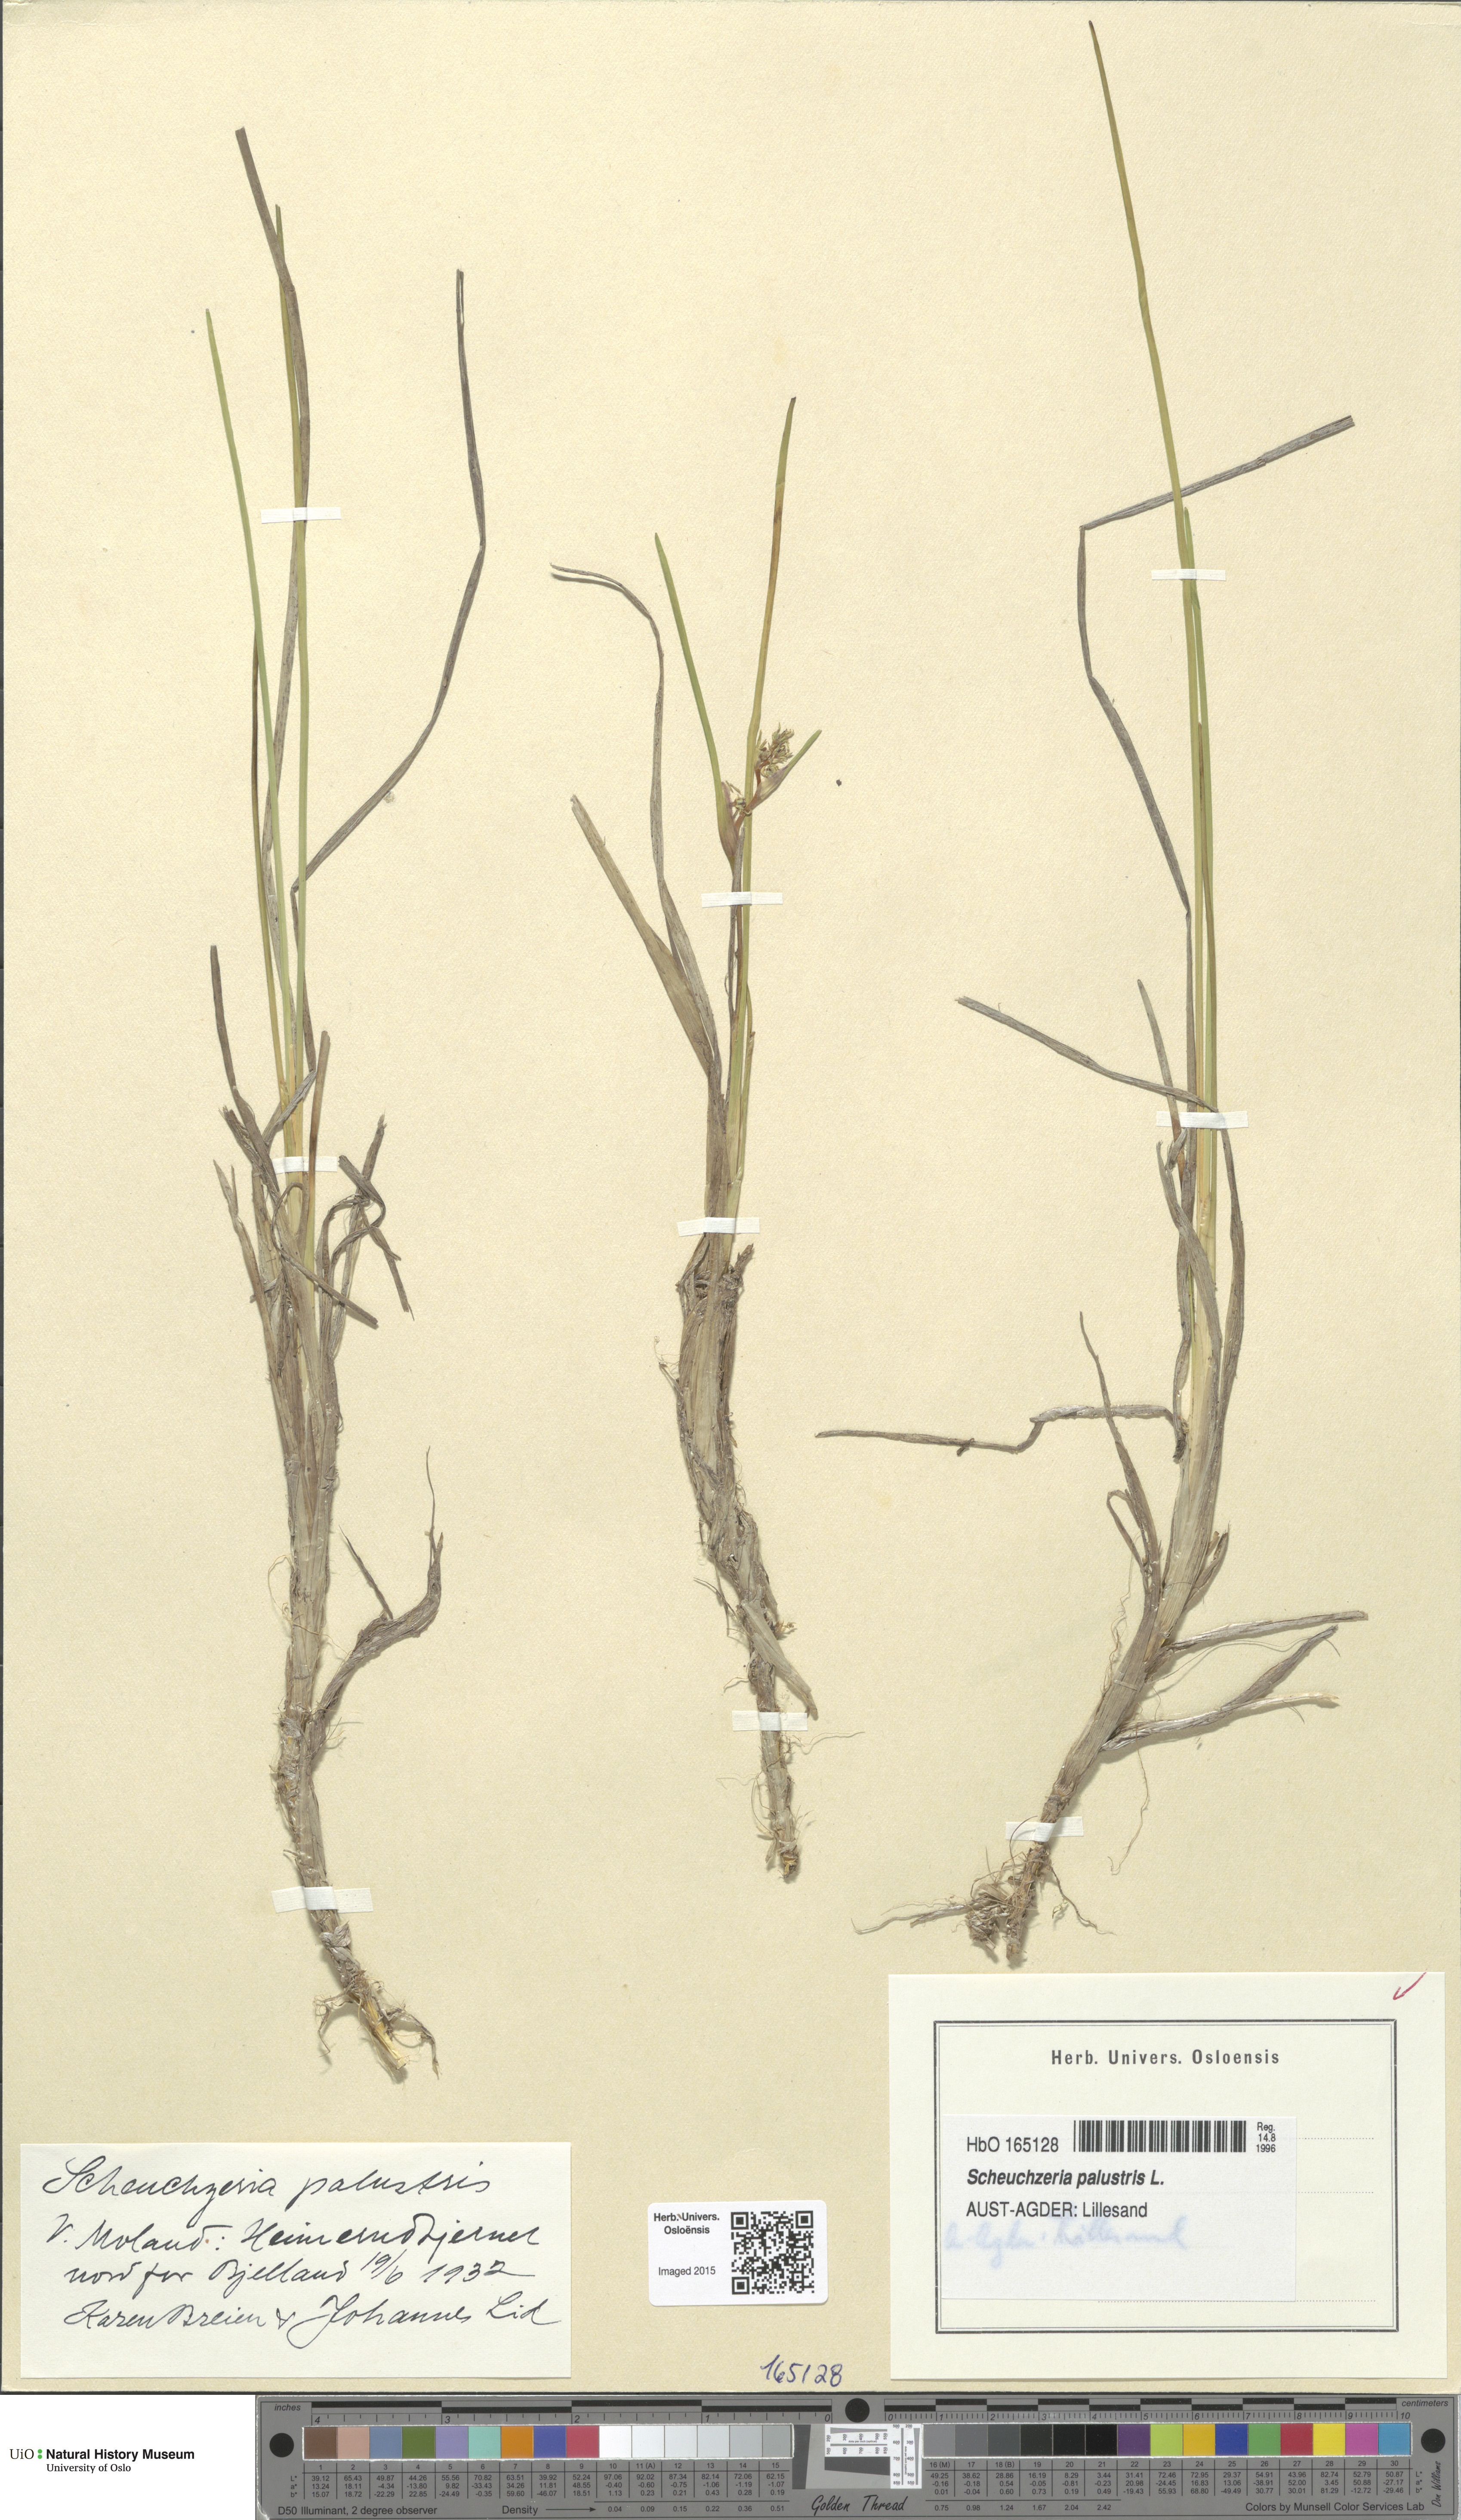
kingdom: Plantae
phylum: Tracheophyta
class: Liliopsida
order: Alismatales
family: Scheuchzeriaceae
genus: Scheuchzeria
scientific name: Scheuchzeria palustris
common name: Rannoch-rush
